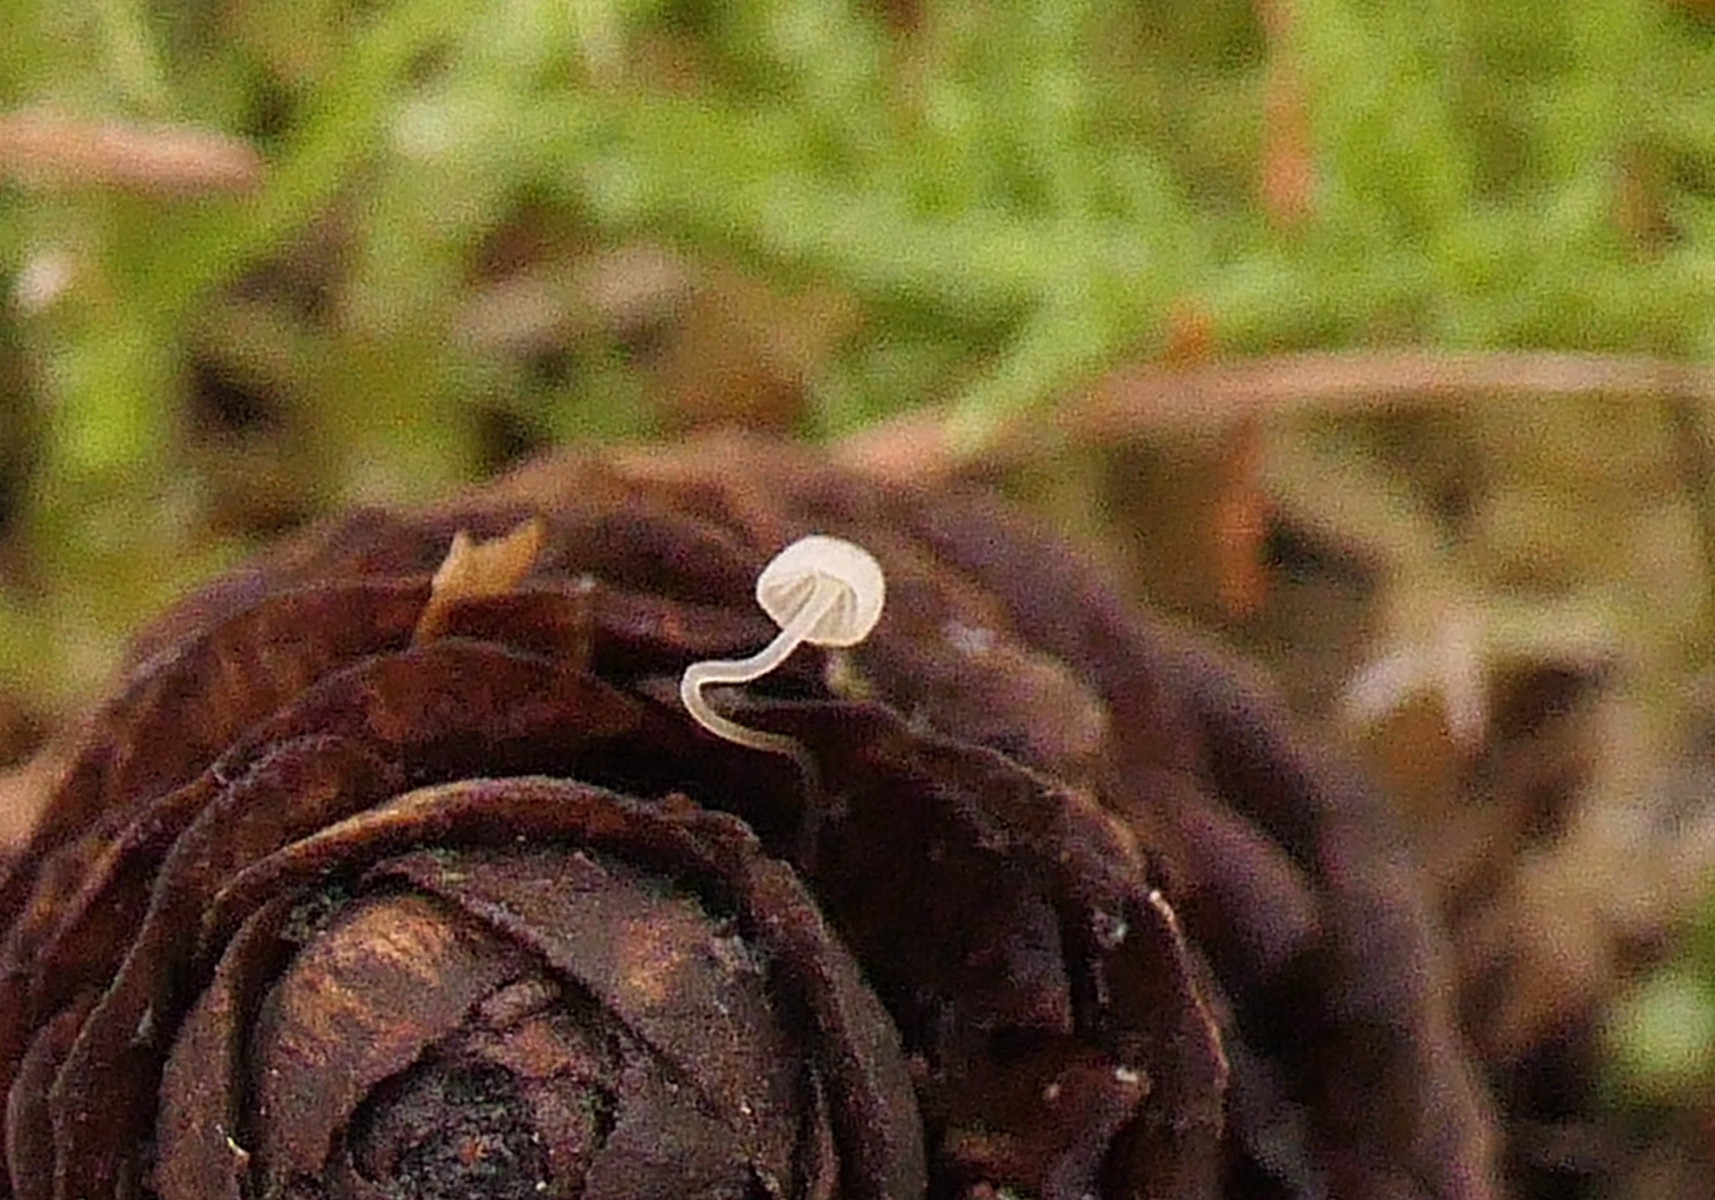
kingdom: Fungi
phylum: Basidiomycota
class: Agaricomycetes
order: Agaricales
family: Porotheleaceae
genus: Phloeomana
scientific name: Phloeomana speirea
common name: kvist-huesvamp
